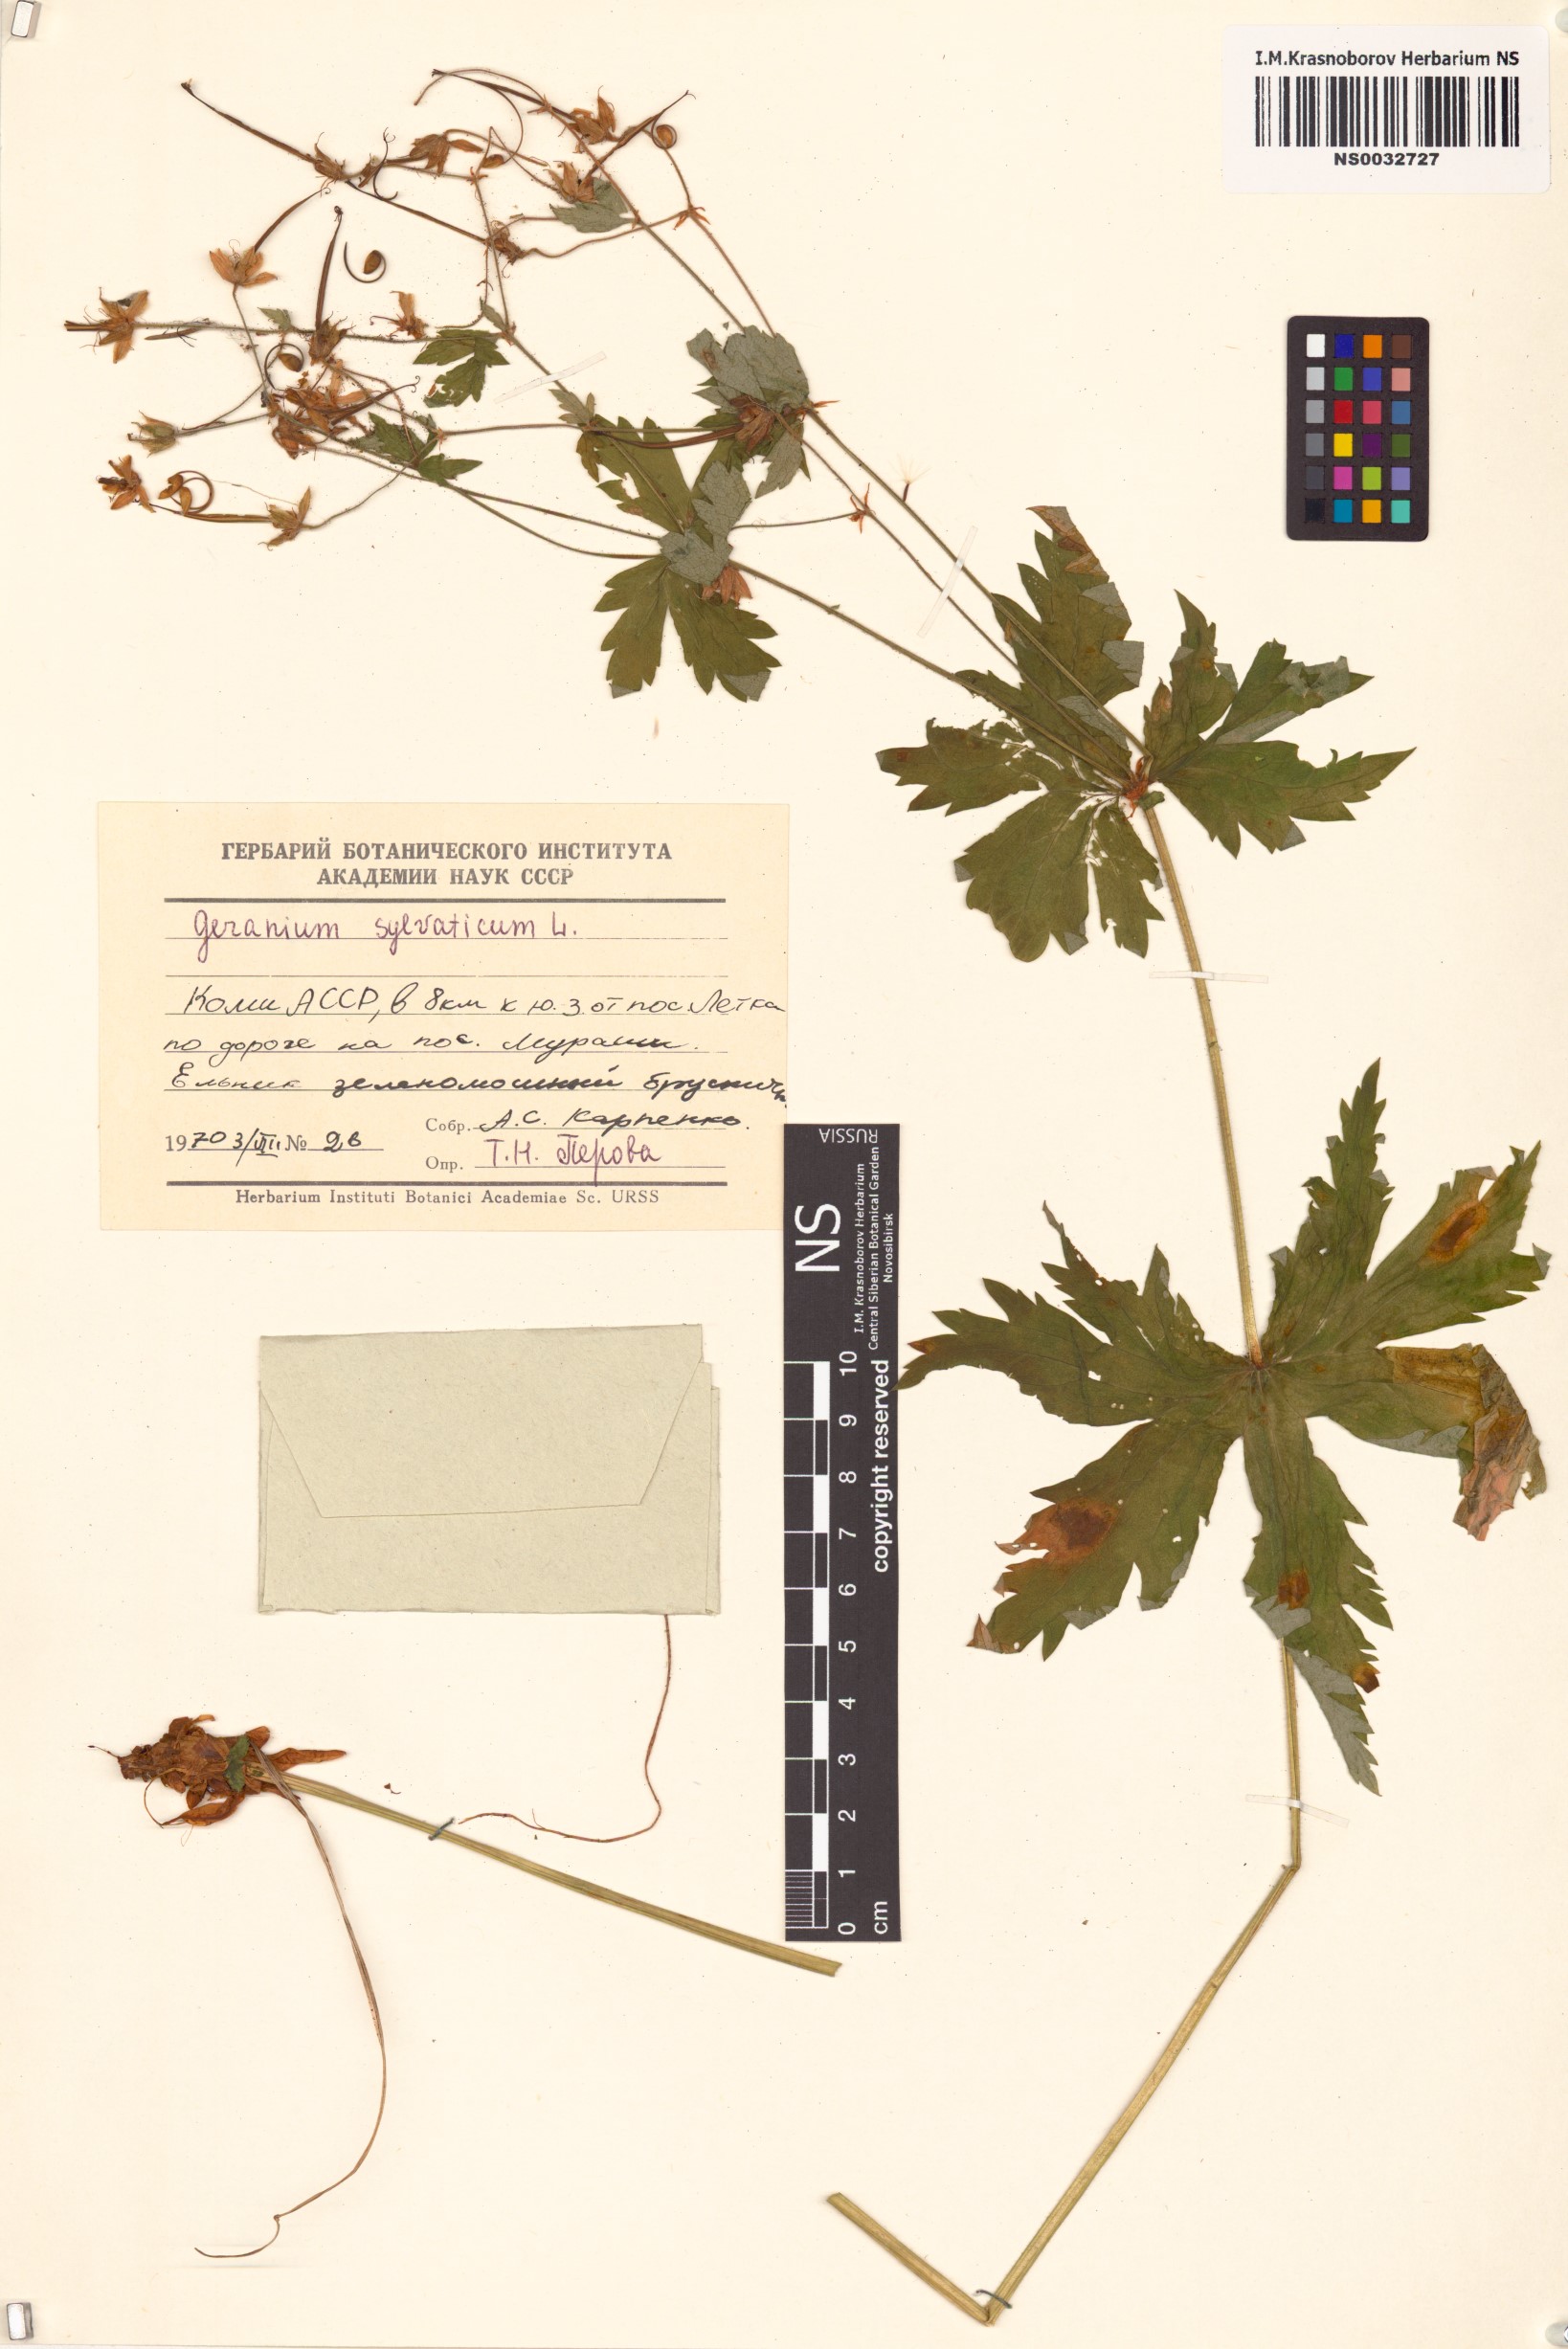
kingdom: Plantae
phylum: Tracheophyta
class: Magnoliopsida
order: Geraniales
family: Geraniaceae
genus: Geranium
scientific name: Geranium sylvaticum
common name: Wood crane's-bill
